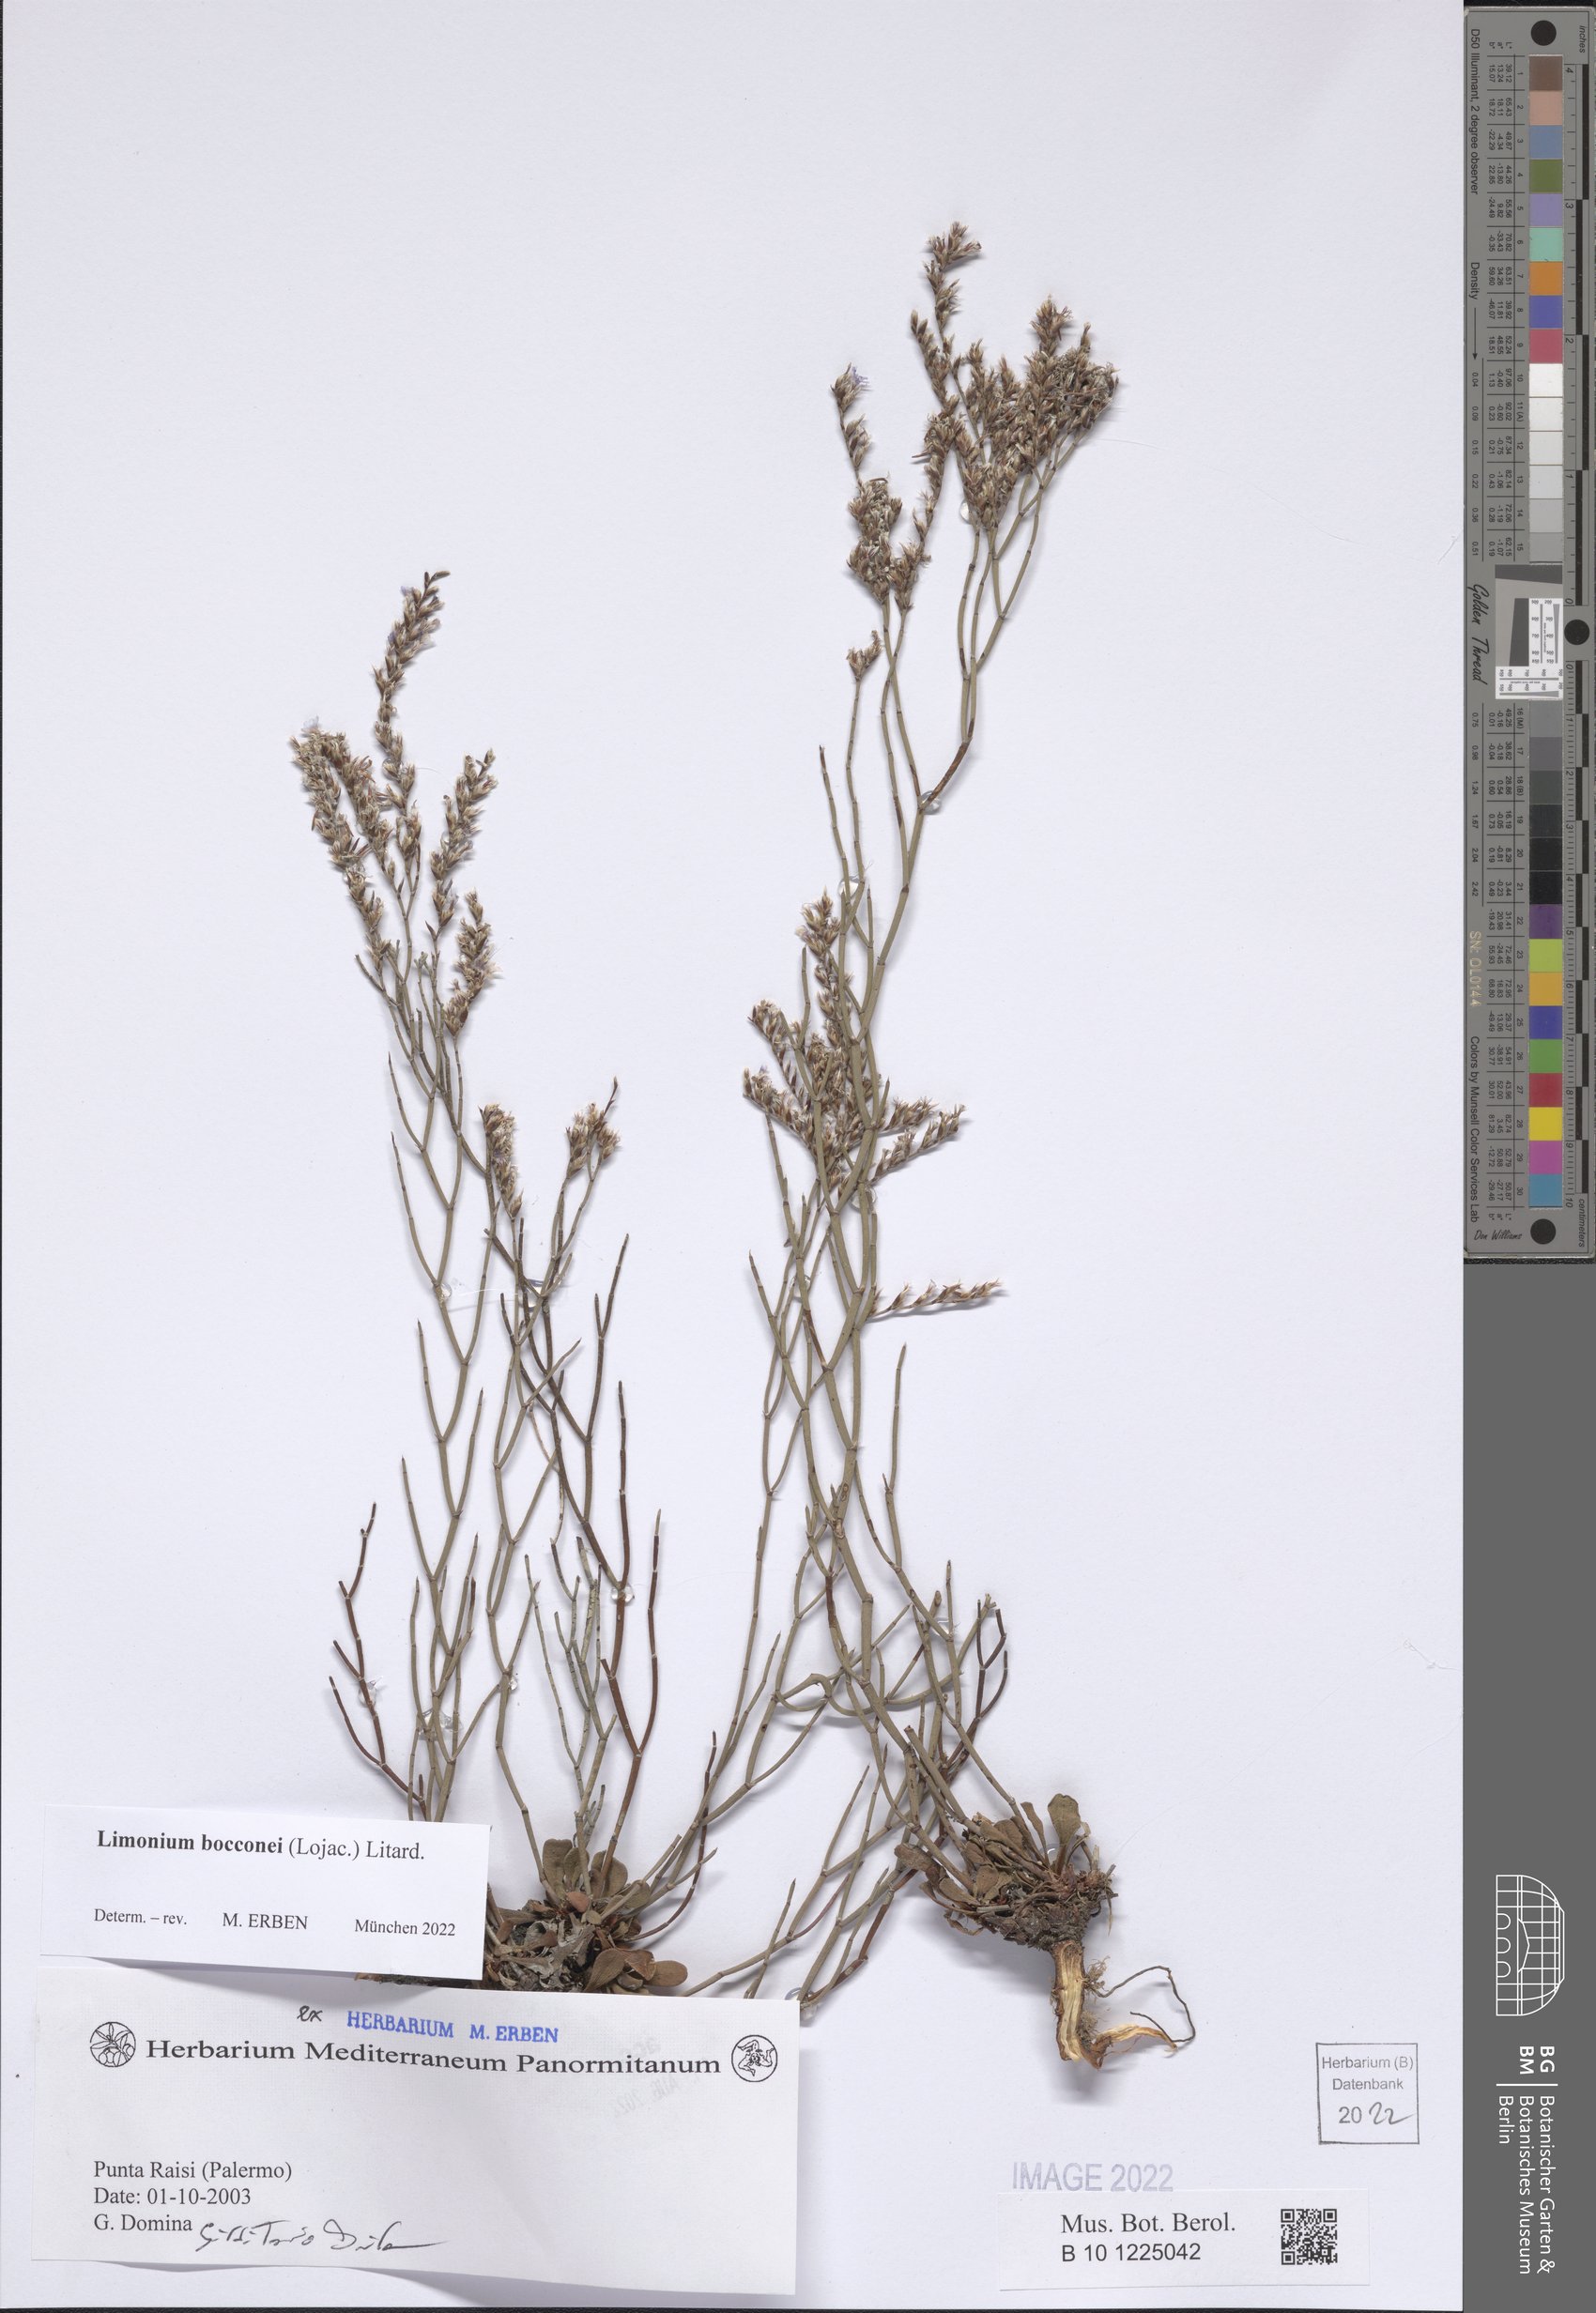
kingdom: Plantae
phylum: Tracheophyta
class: Magnoliopsida
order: Caryophyllales
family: Plumbaginaceae
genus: Limonium
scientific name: Limonium bocconei
